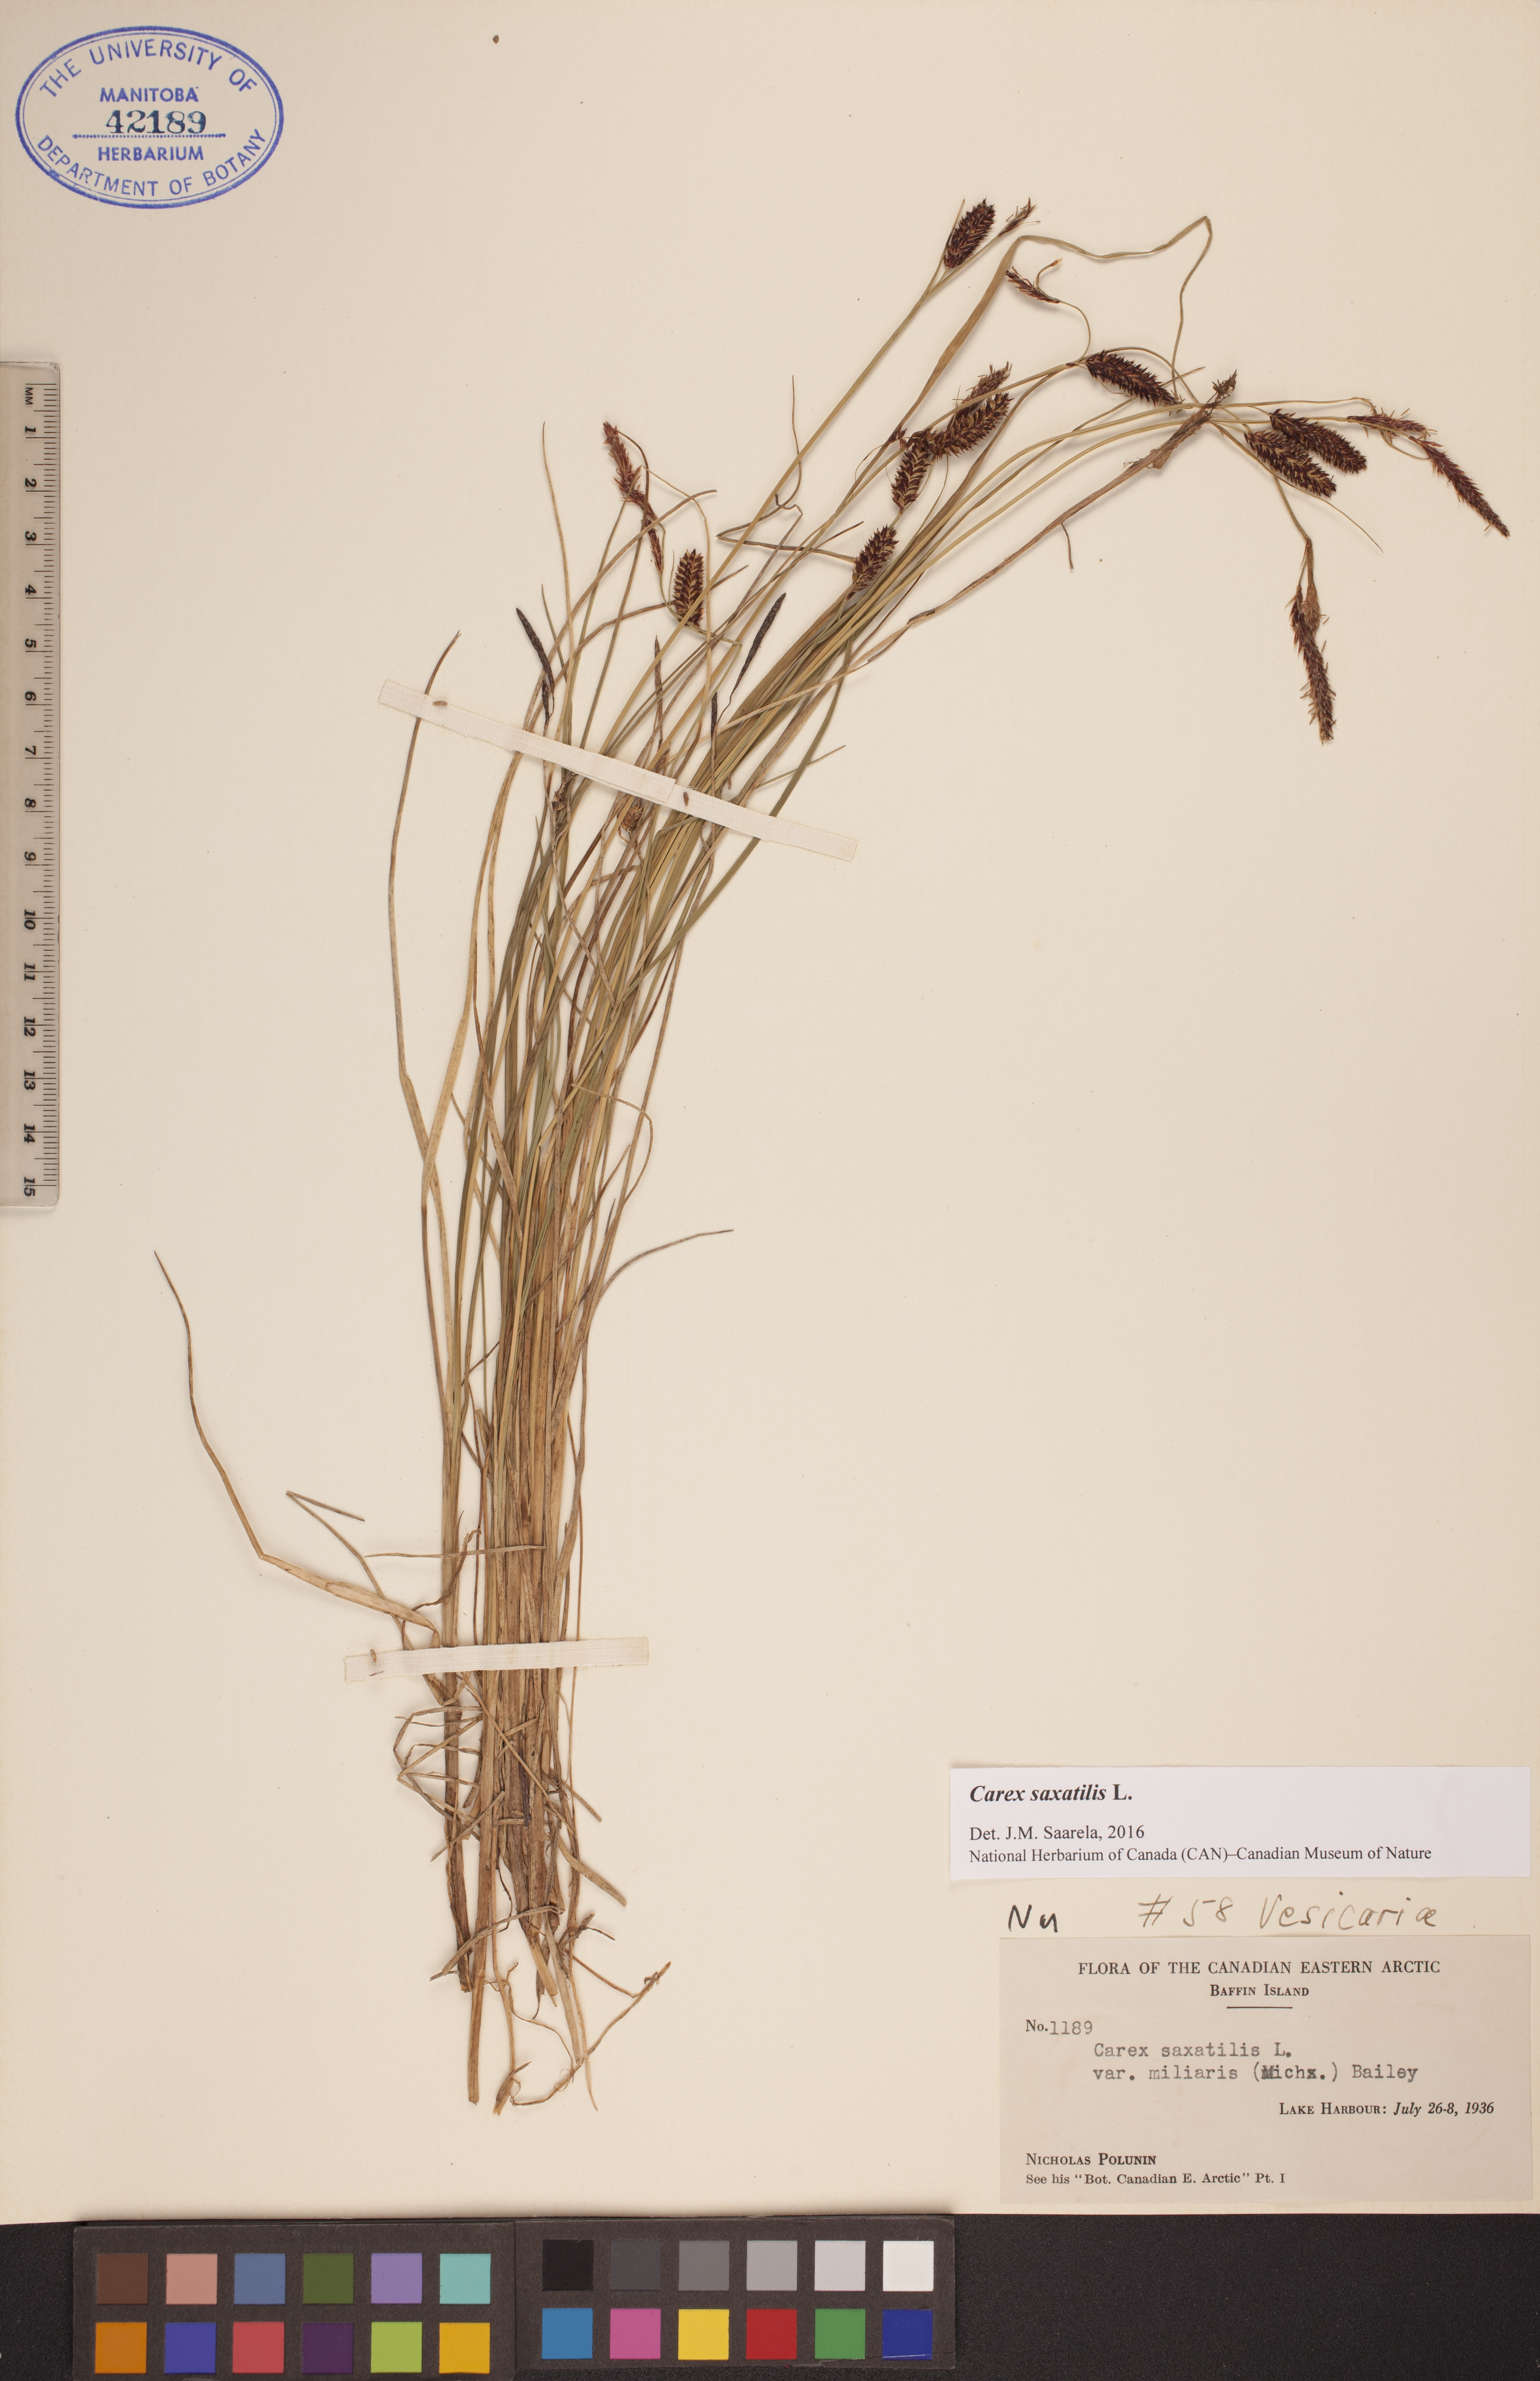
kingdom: Plantae
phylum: Tracheophyta
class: Liliopsida
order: Poales
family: Cyperaceae
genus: Carex
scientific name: Carex saxatilis
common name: Russet sedge
